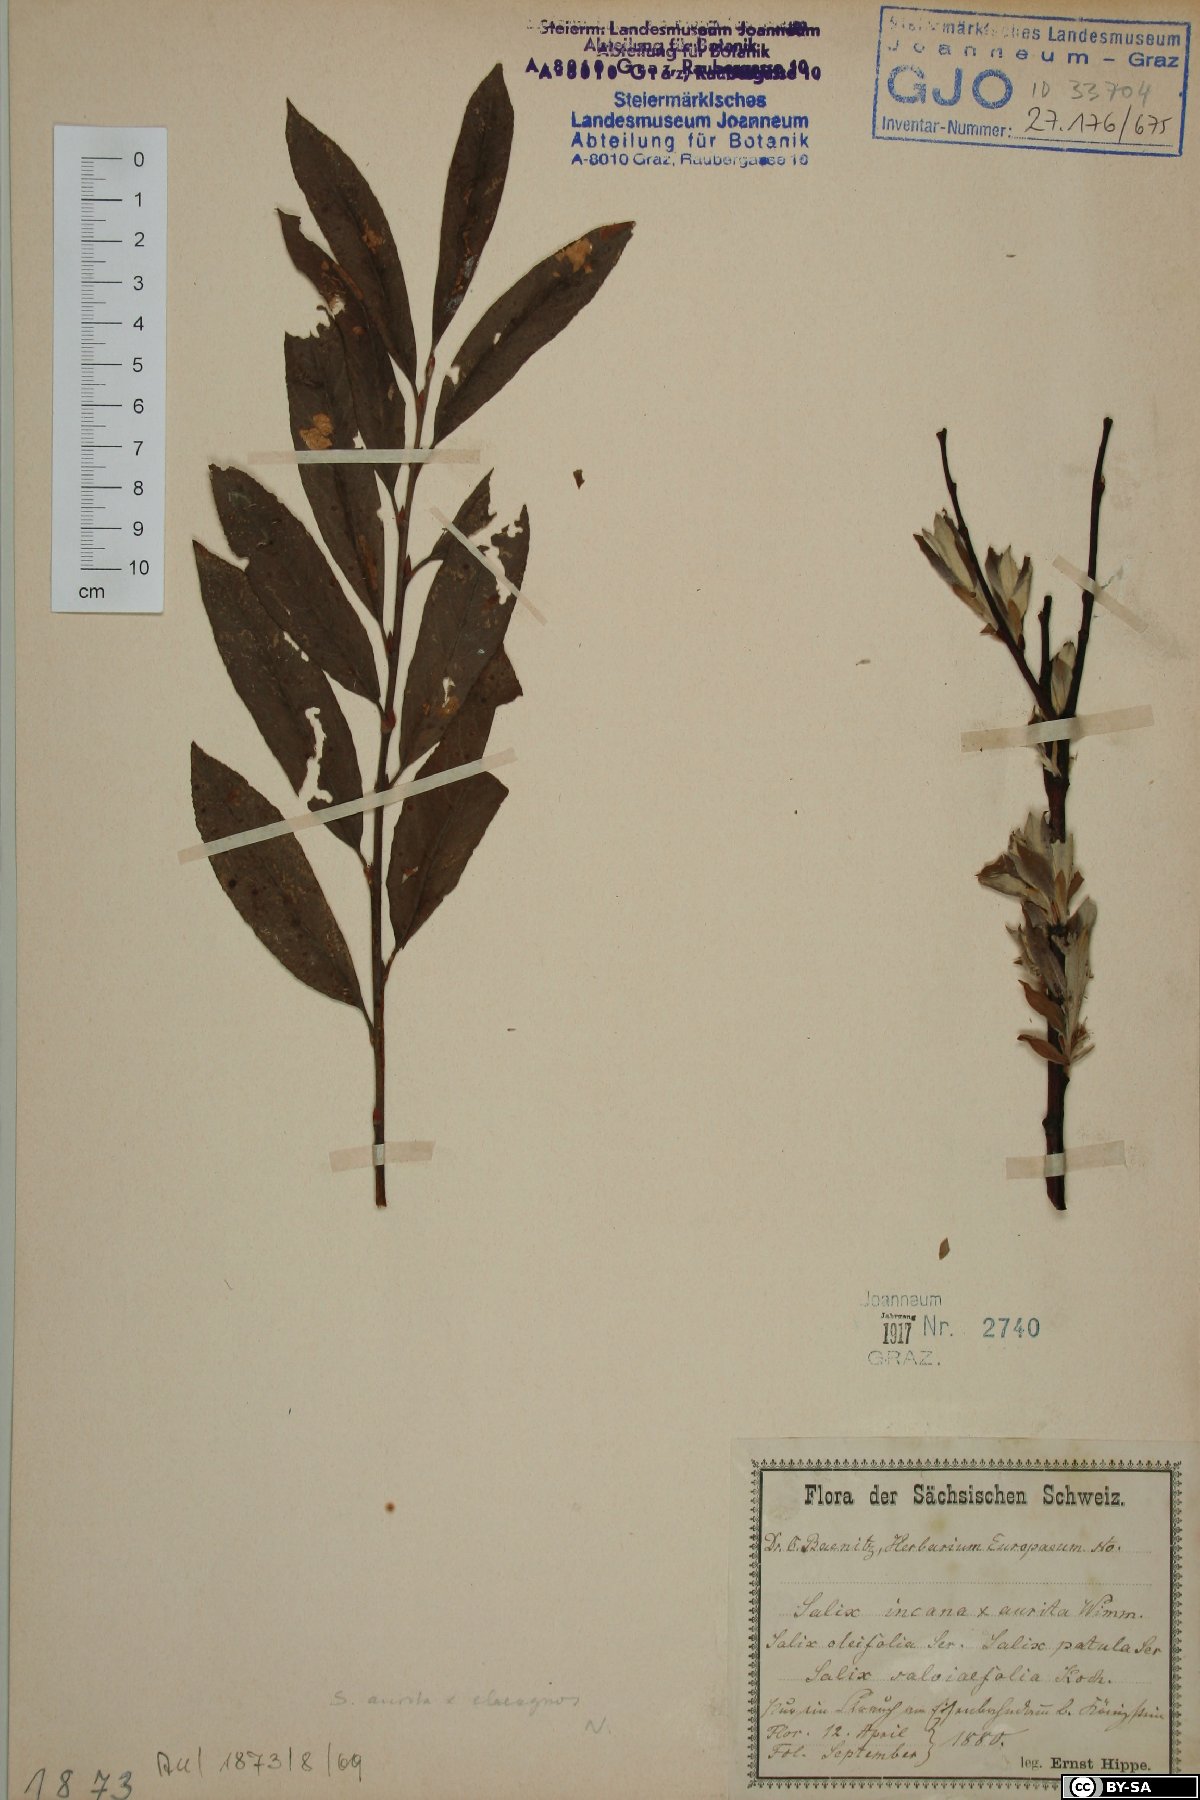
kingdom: Plantae
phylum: Tracheophyta
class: Magnoliopsida
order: Malpighiales
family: Salicaceae
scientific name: Salicaceae
